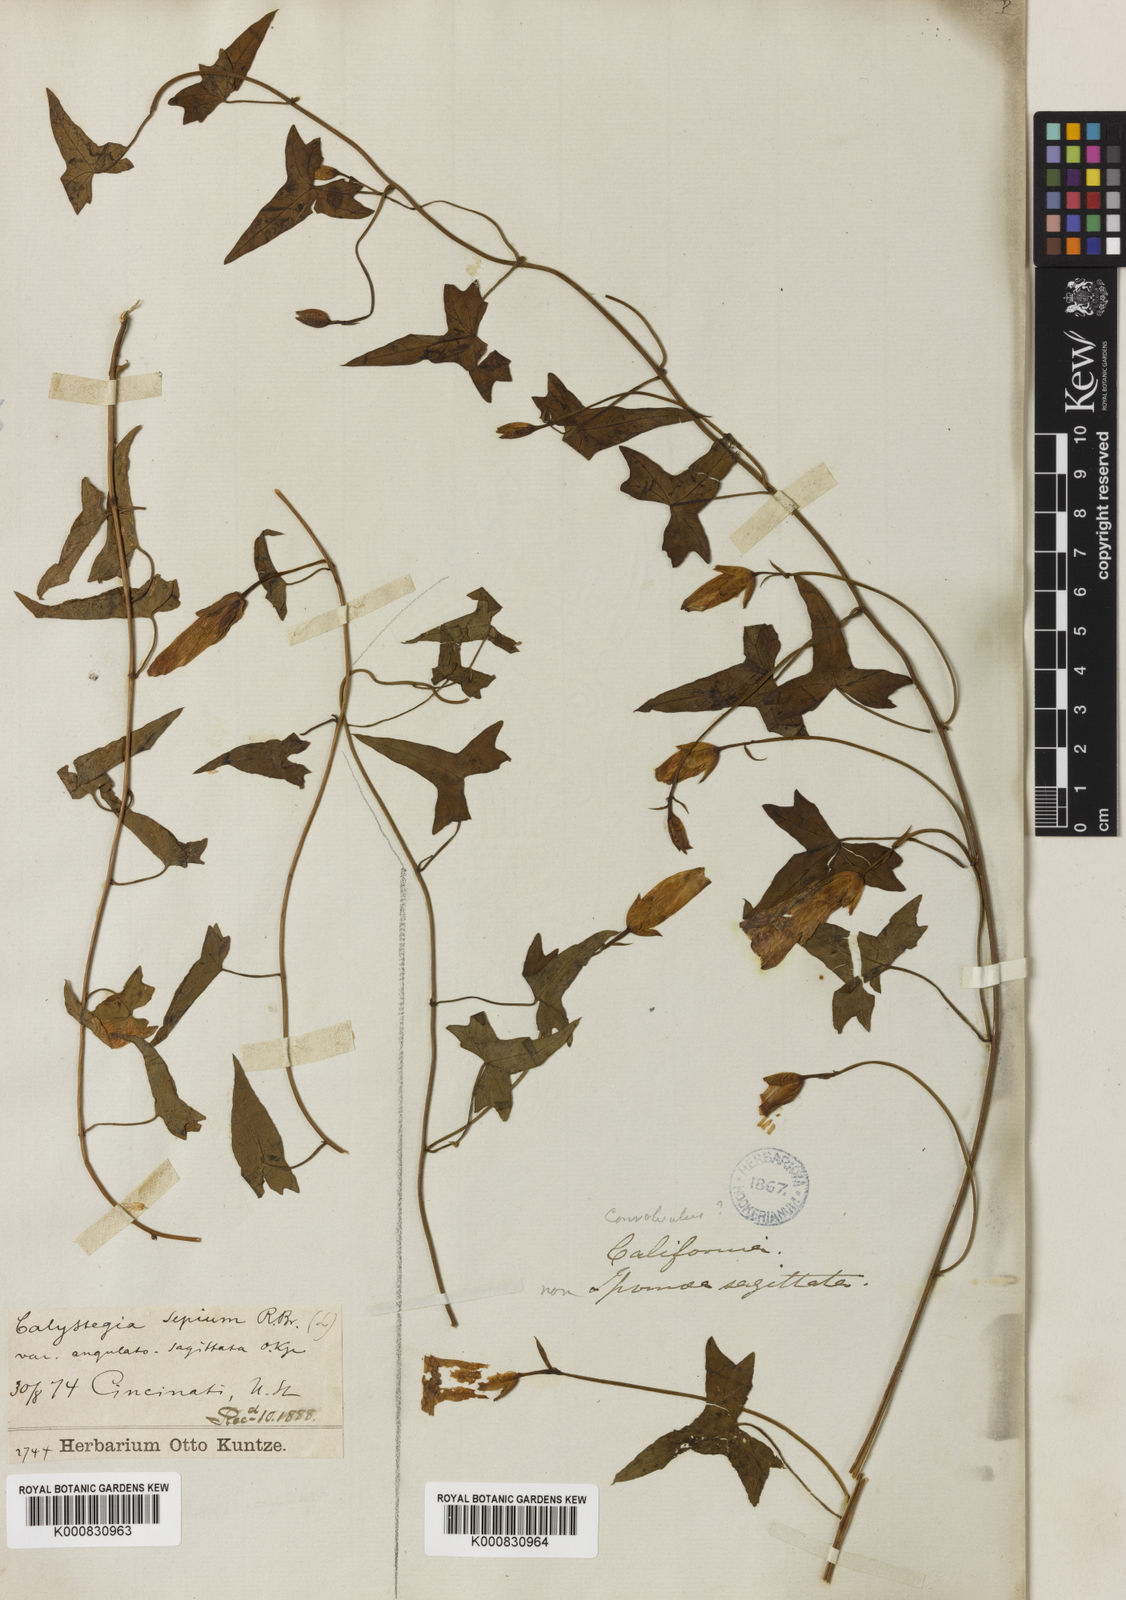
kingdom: Plantae
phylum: Tracheophyta
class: Magnoliopsida
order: Solanales
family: Convolvulaceae
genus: Calystegia
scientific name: Calystegia sepium
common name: Hedge bindweed
